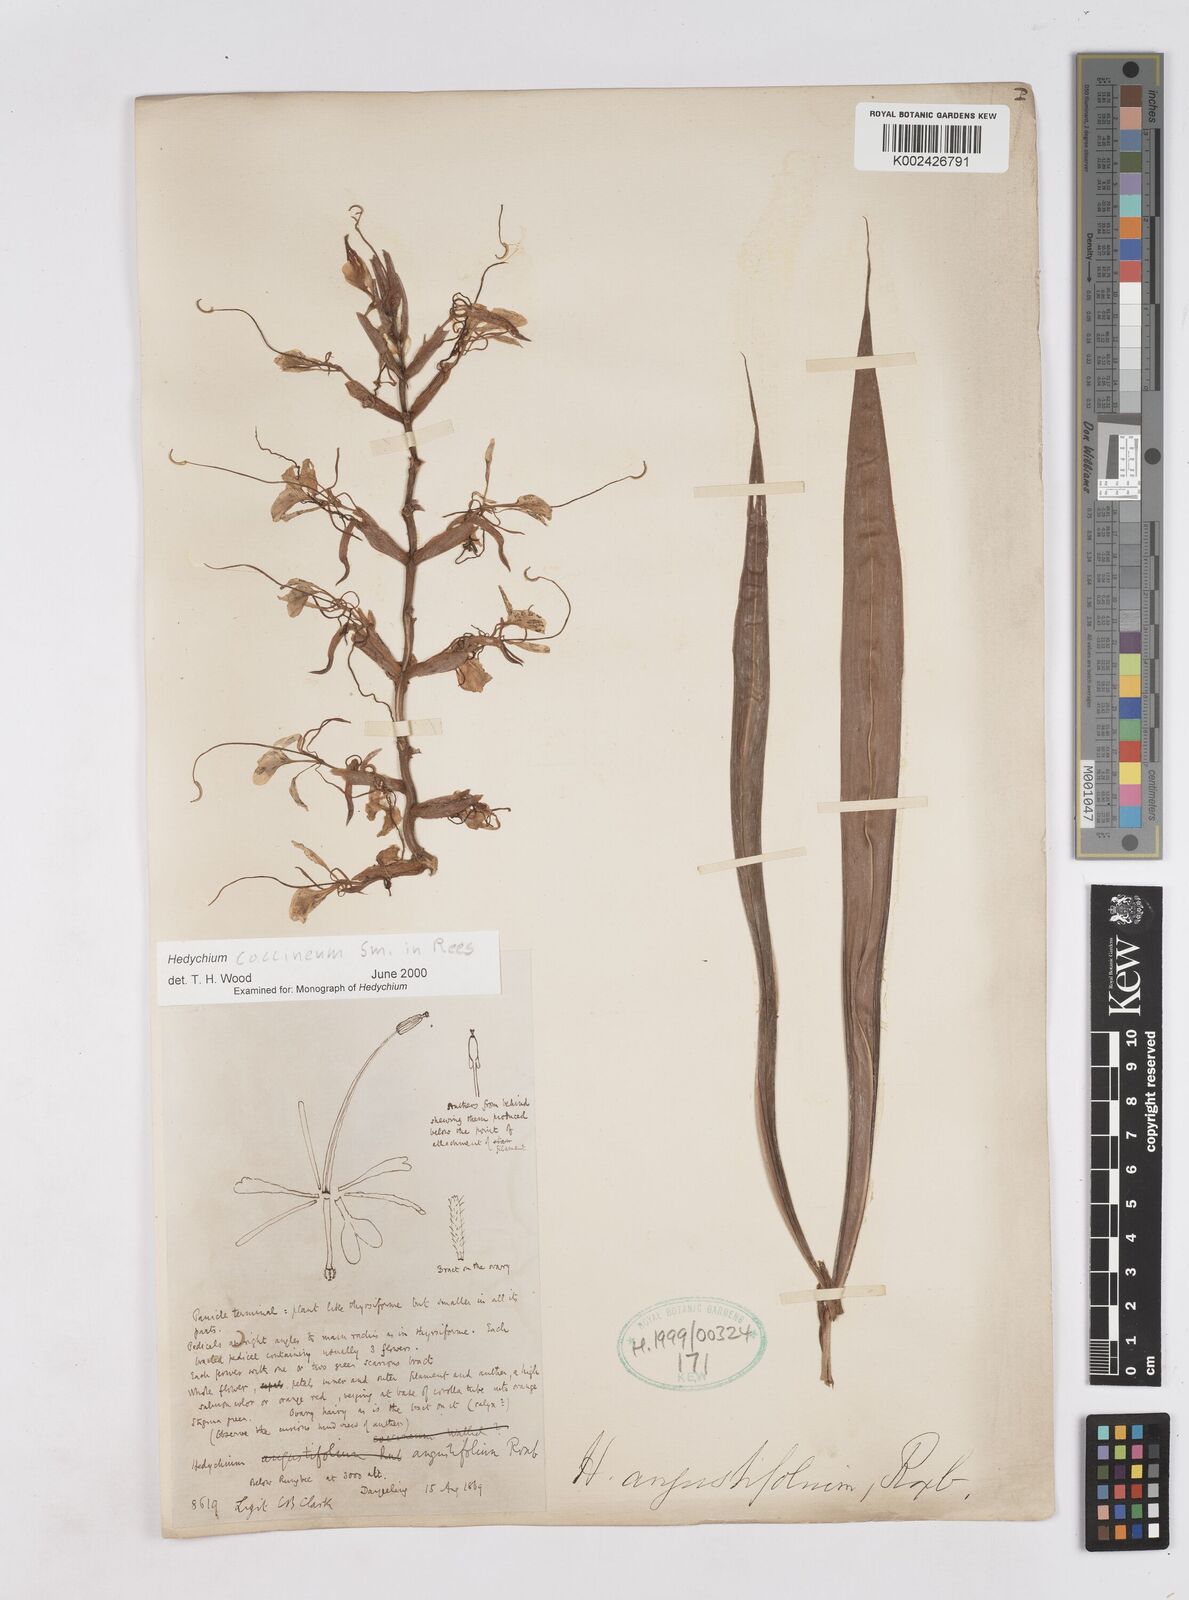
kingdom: Plantae
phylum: Tracheophyta
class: Liliopsida
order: Zingiberales
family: Zingiberaceae
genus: Hedychium
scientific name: Hedychium coccineum
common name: Red ginger-lily
